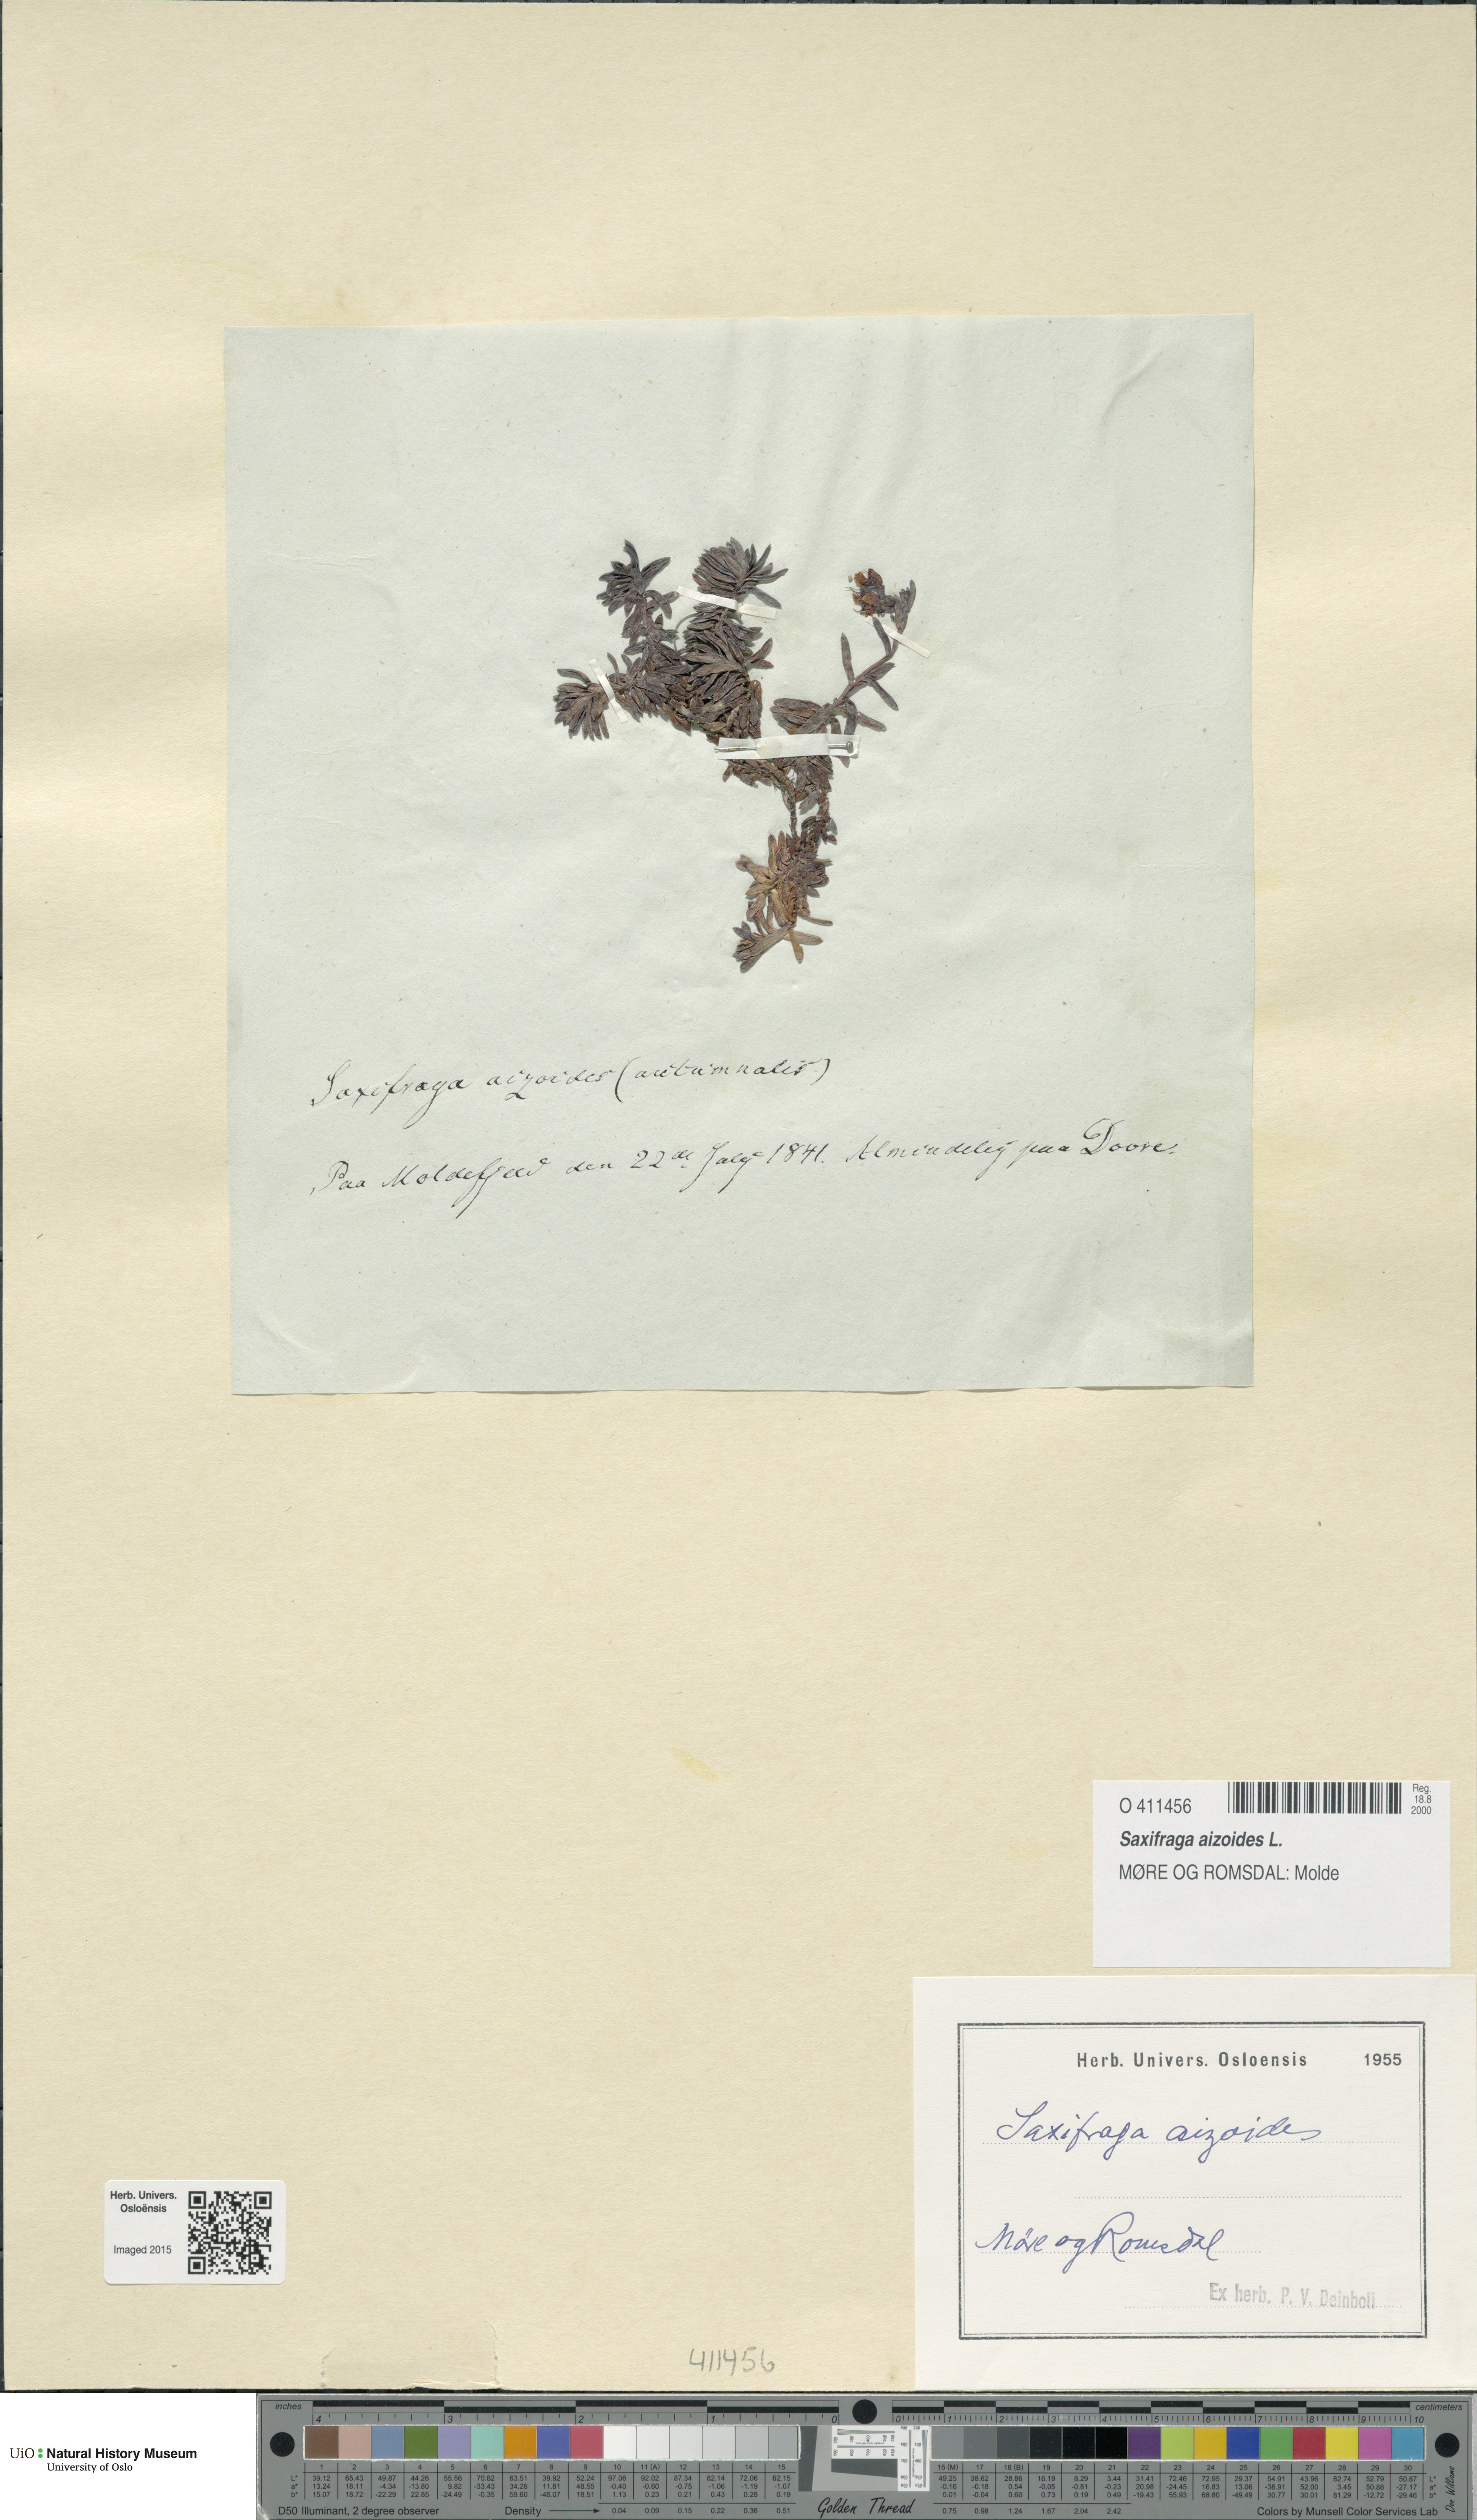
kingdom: Plantae
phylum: Tracheophyta
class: Magnoliopsida
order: Saxifragales
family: Saxifragaceae
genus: Saxifraga
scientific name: Saxifraga aizoides
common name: Yellow mountain saxifrage
